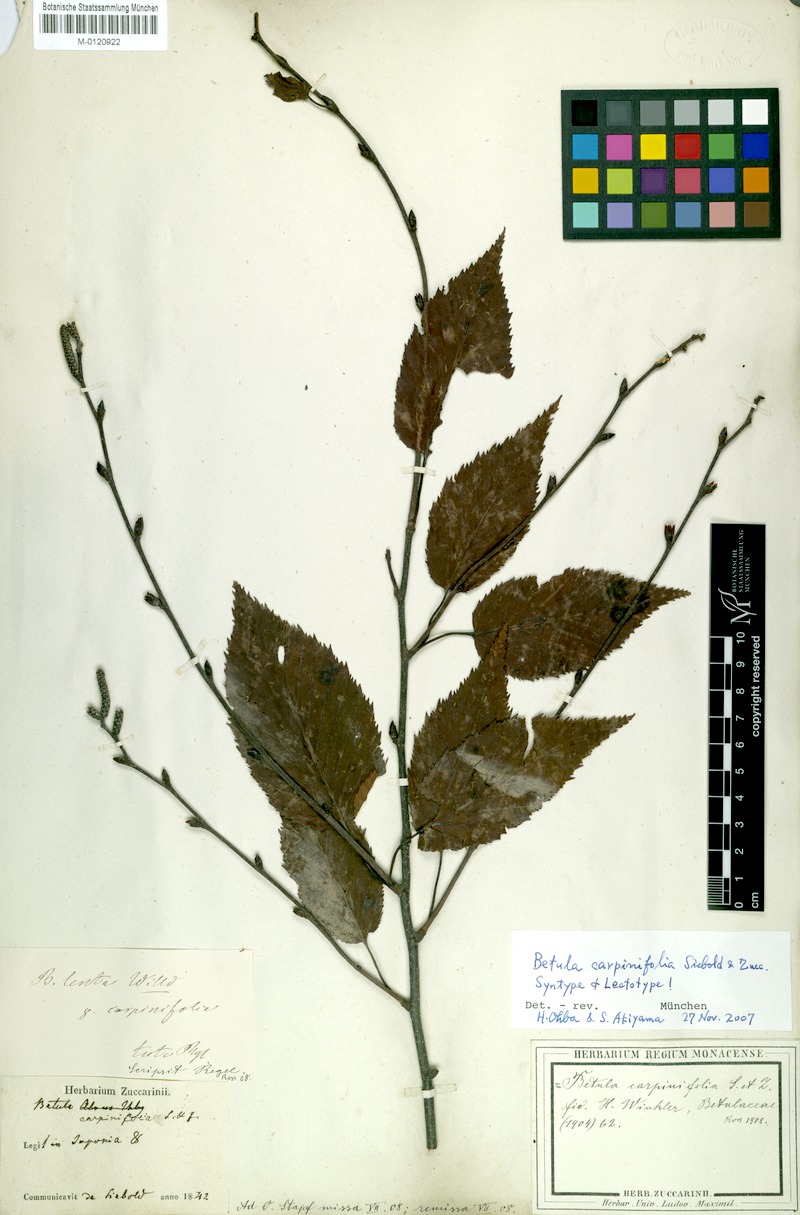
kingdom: Plantae
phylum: Tracheophyta
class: Magnoliopsida
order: Fagales
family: Betulaceae
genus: Betula
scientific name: Betula grossa
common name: Japanese cherry birch
